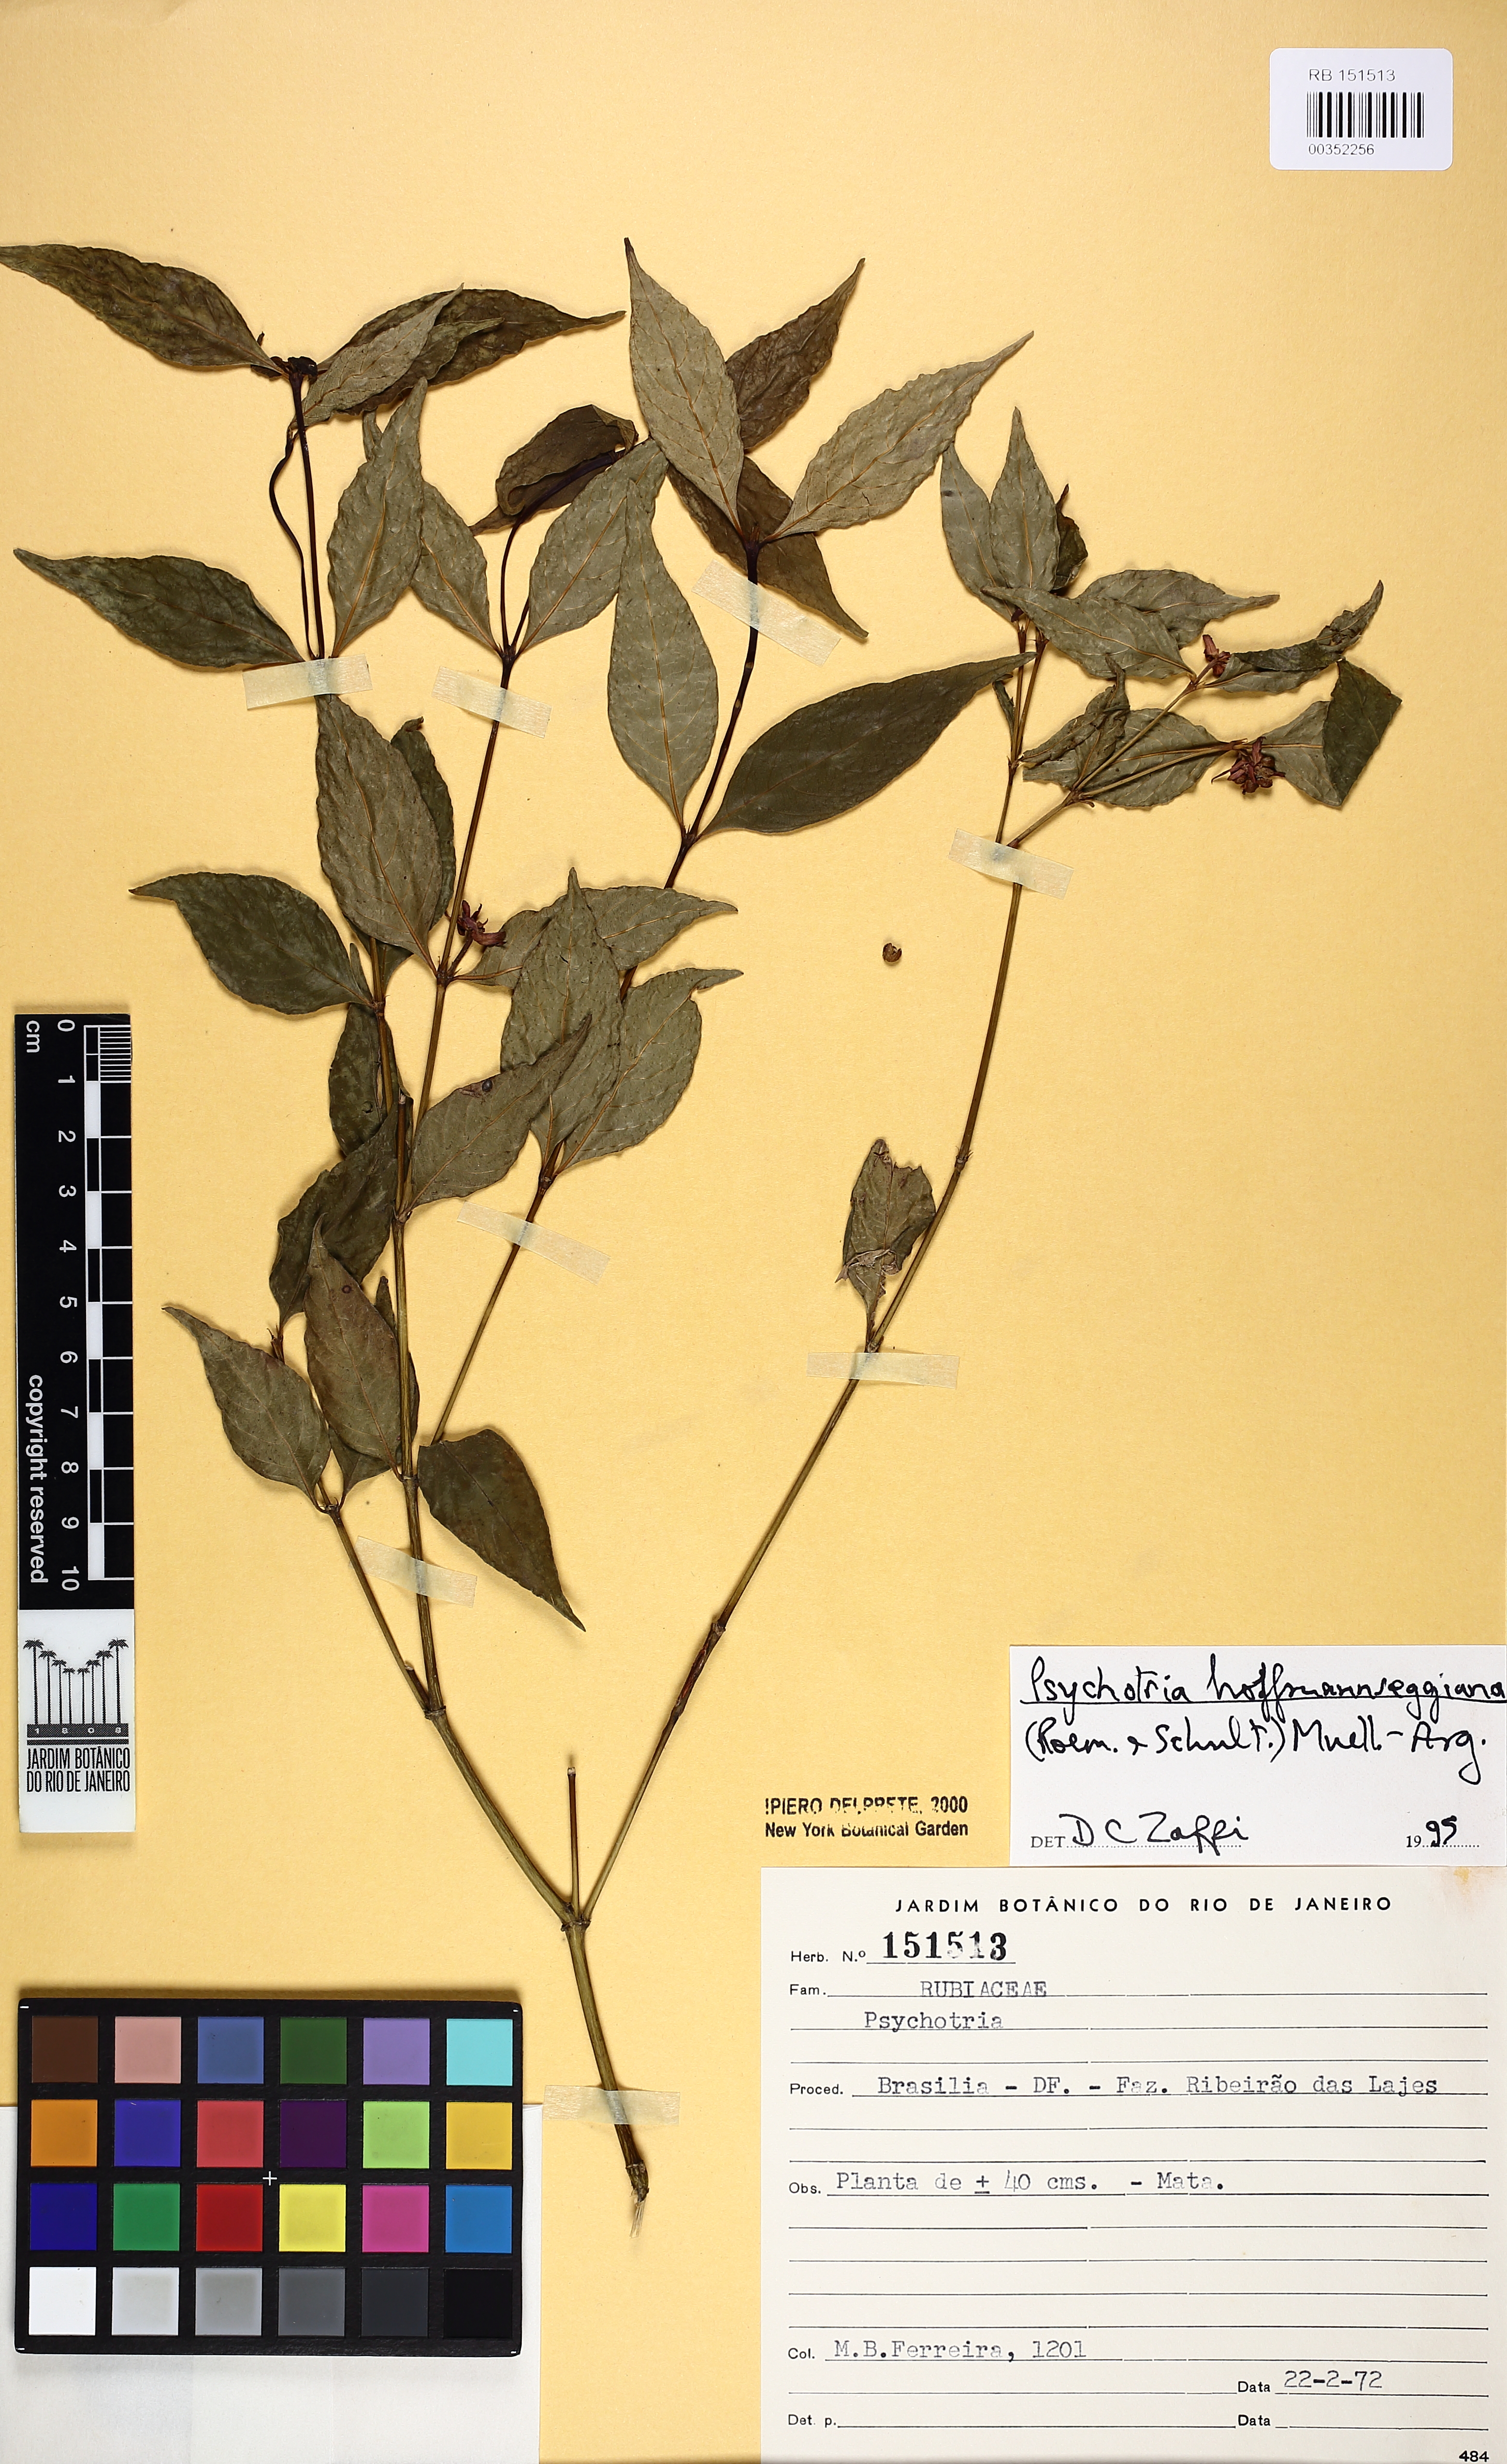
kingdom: Plantae
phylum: Tracheophyta
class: Magnoliopsida
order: Gentianales
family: Rubiaceae
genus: Palicourea
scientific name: Palicourea hoffmannseggiana
